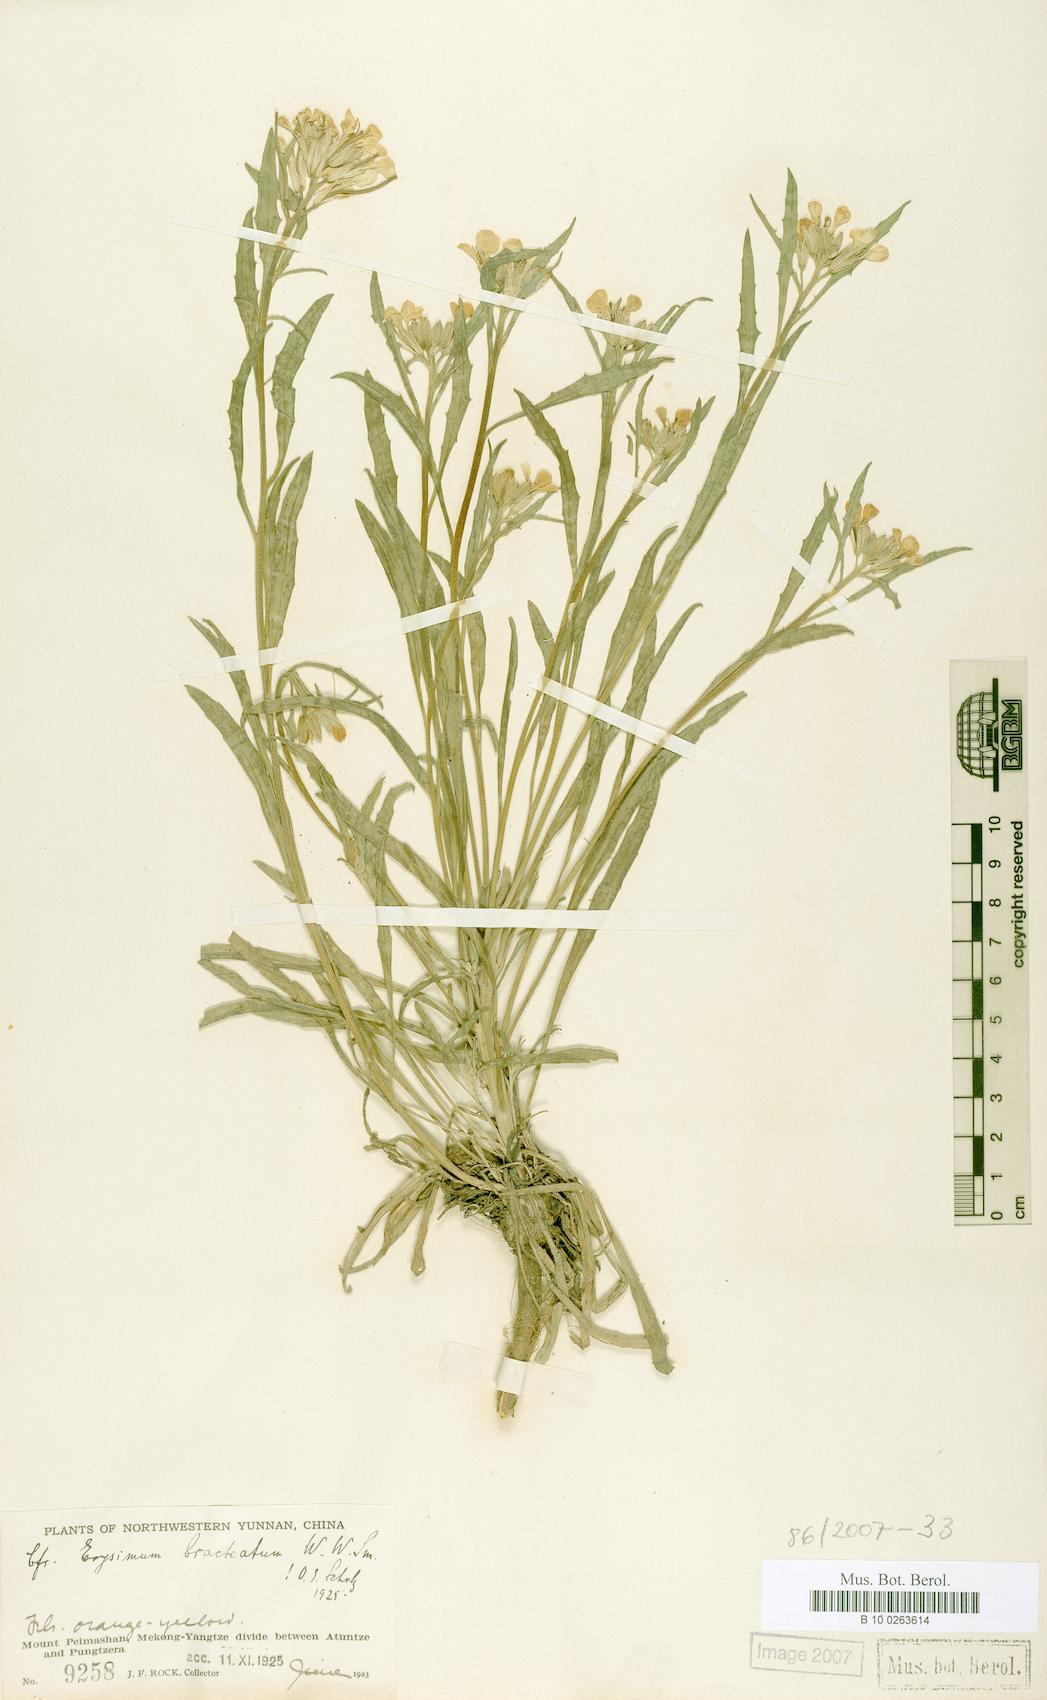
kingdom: Plantae
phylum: Tracheophyta
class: Magnoliopsida
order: Brassicales
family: Brassicaceae
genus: Erysimum
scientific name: Erysimum wardii
